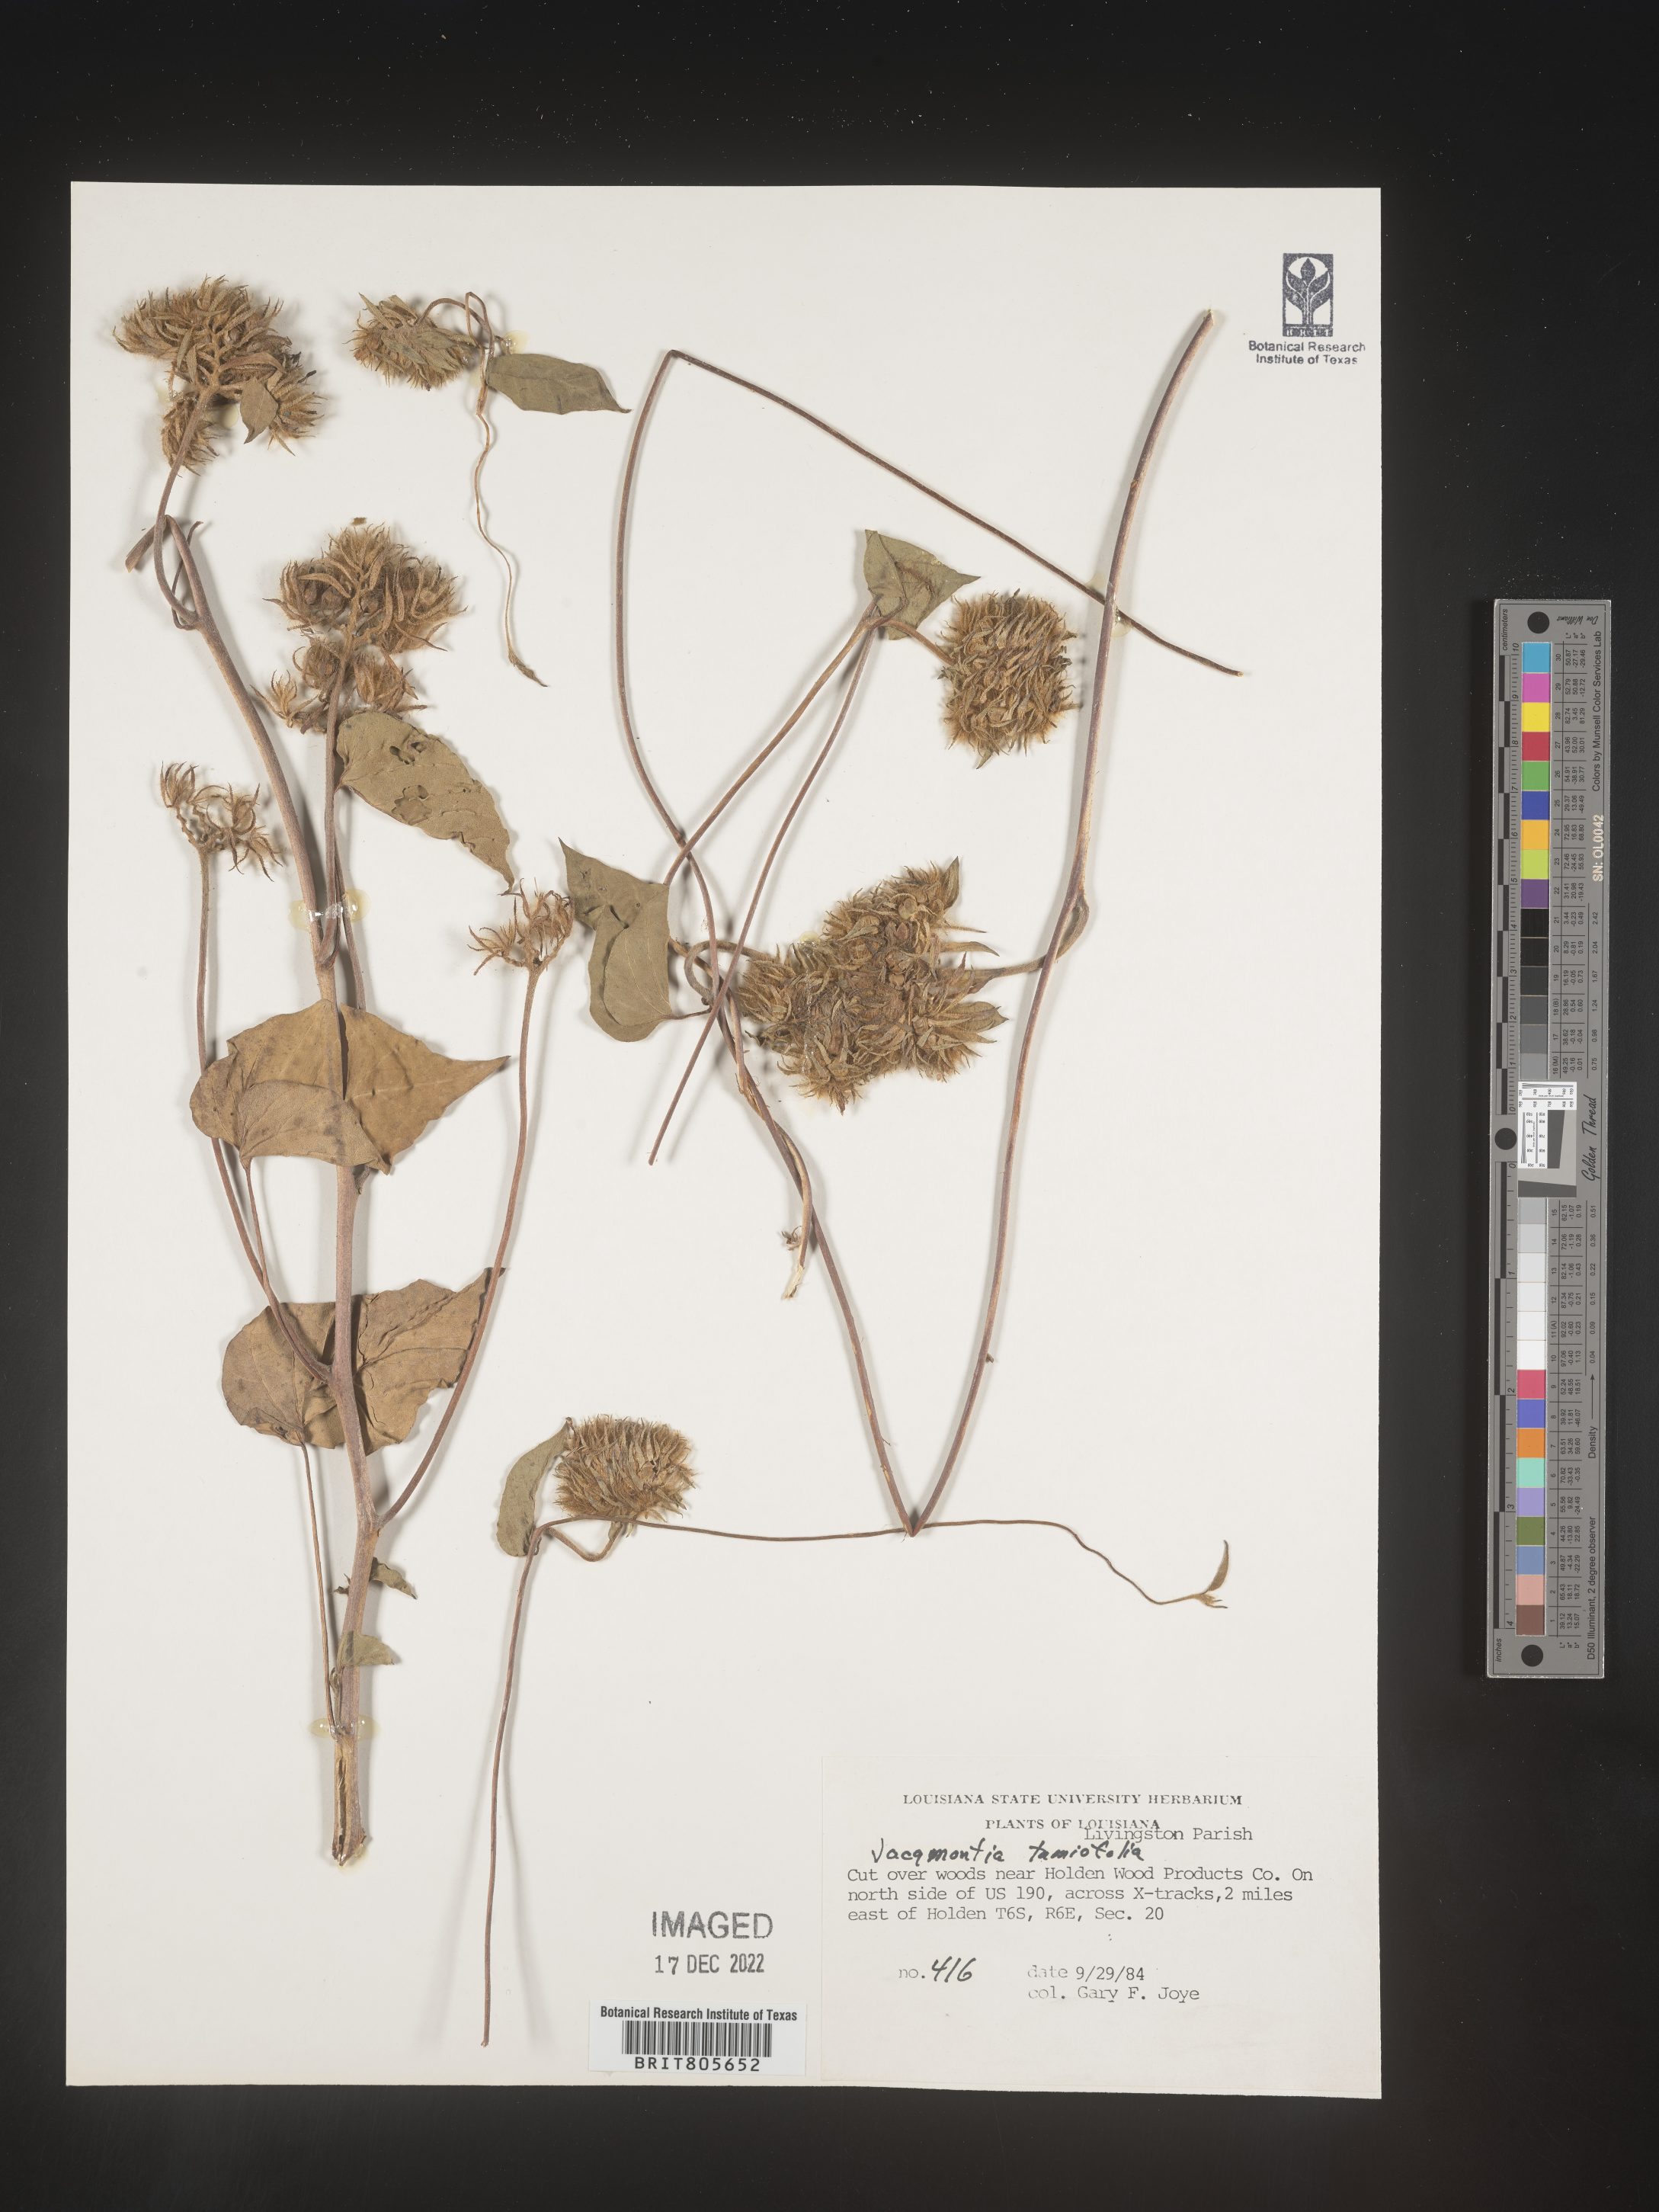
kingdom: Plantae
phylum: Tracheophyta
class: Magnoliopsida
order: Solanales
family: Convolvulaceae
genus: Jacquemontia
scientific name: Jacquemontia tamnifolia
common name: Hairy clustervine
